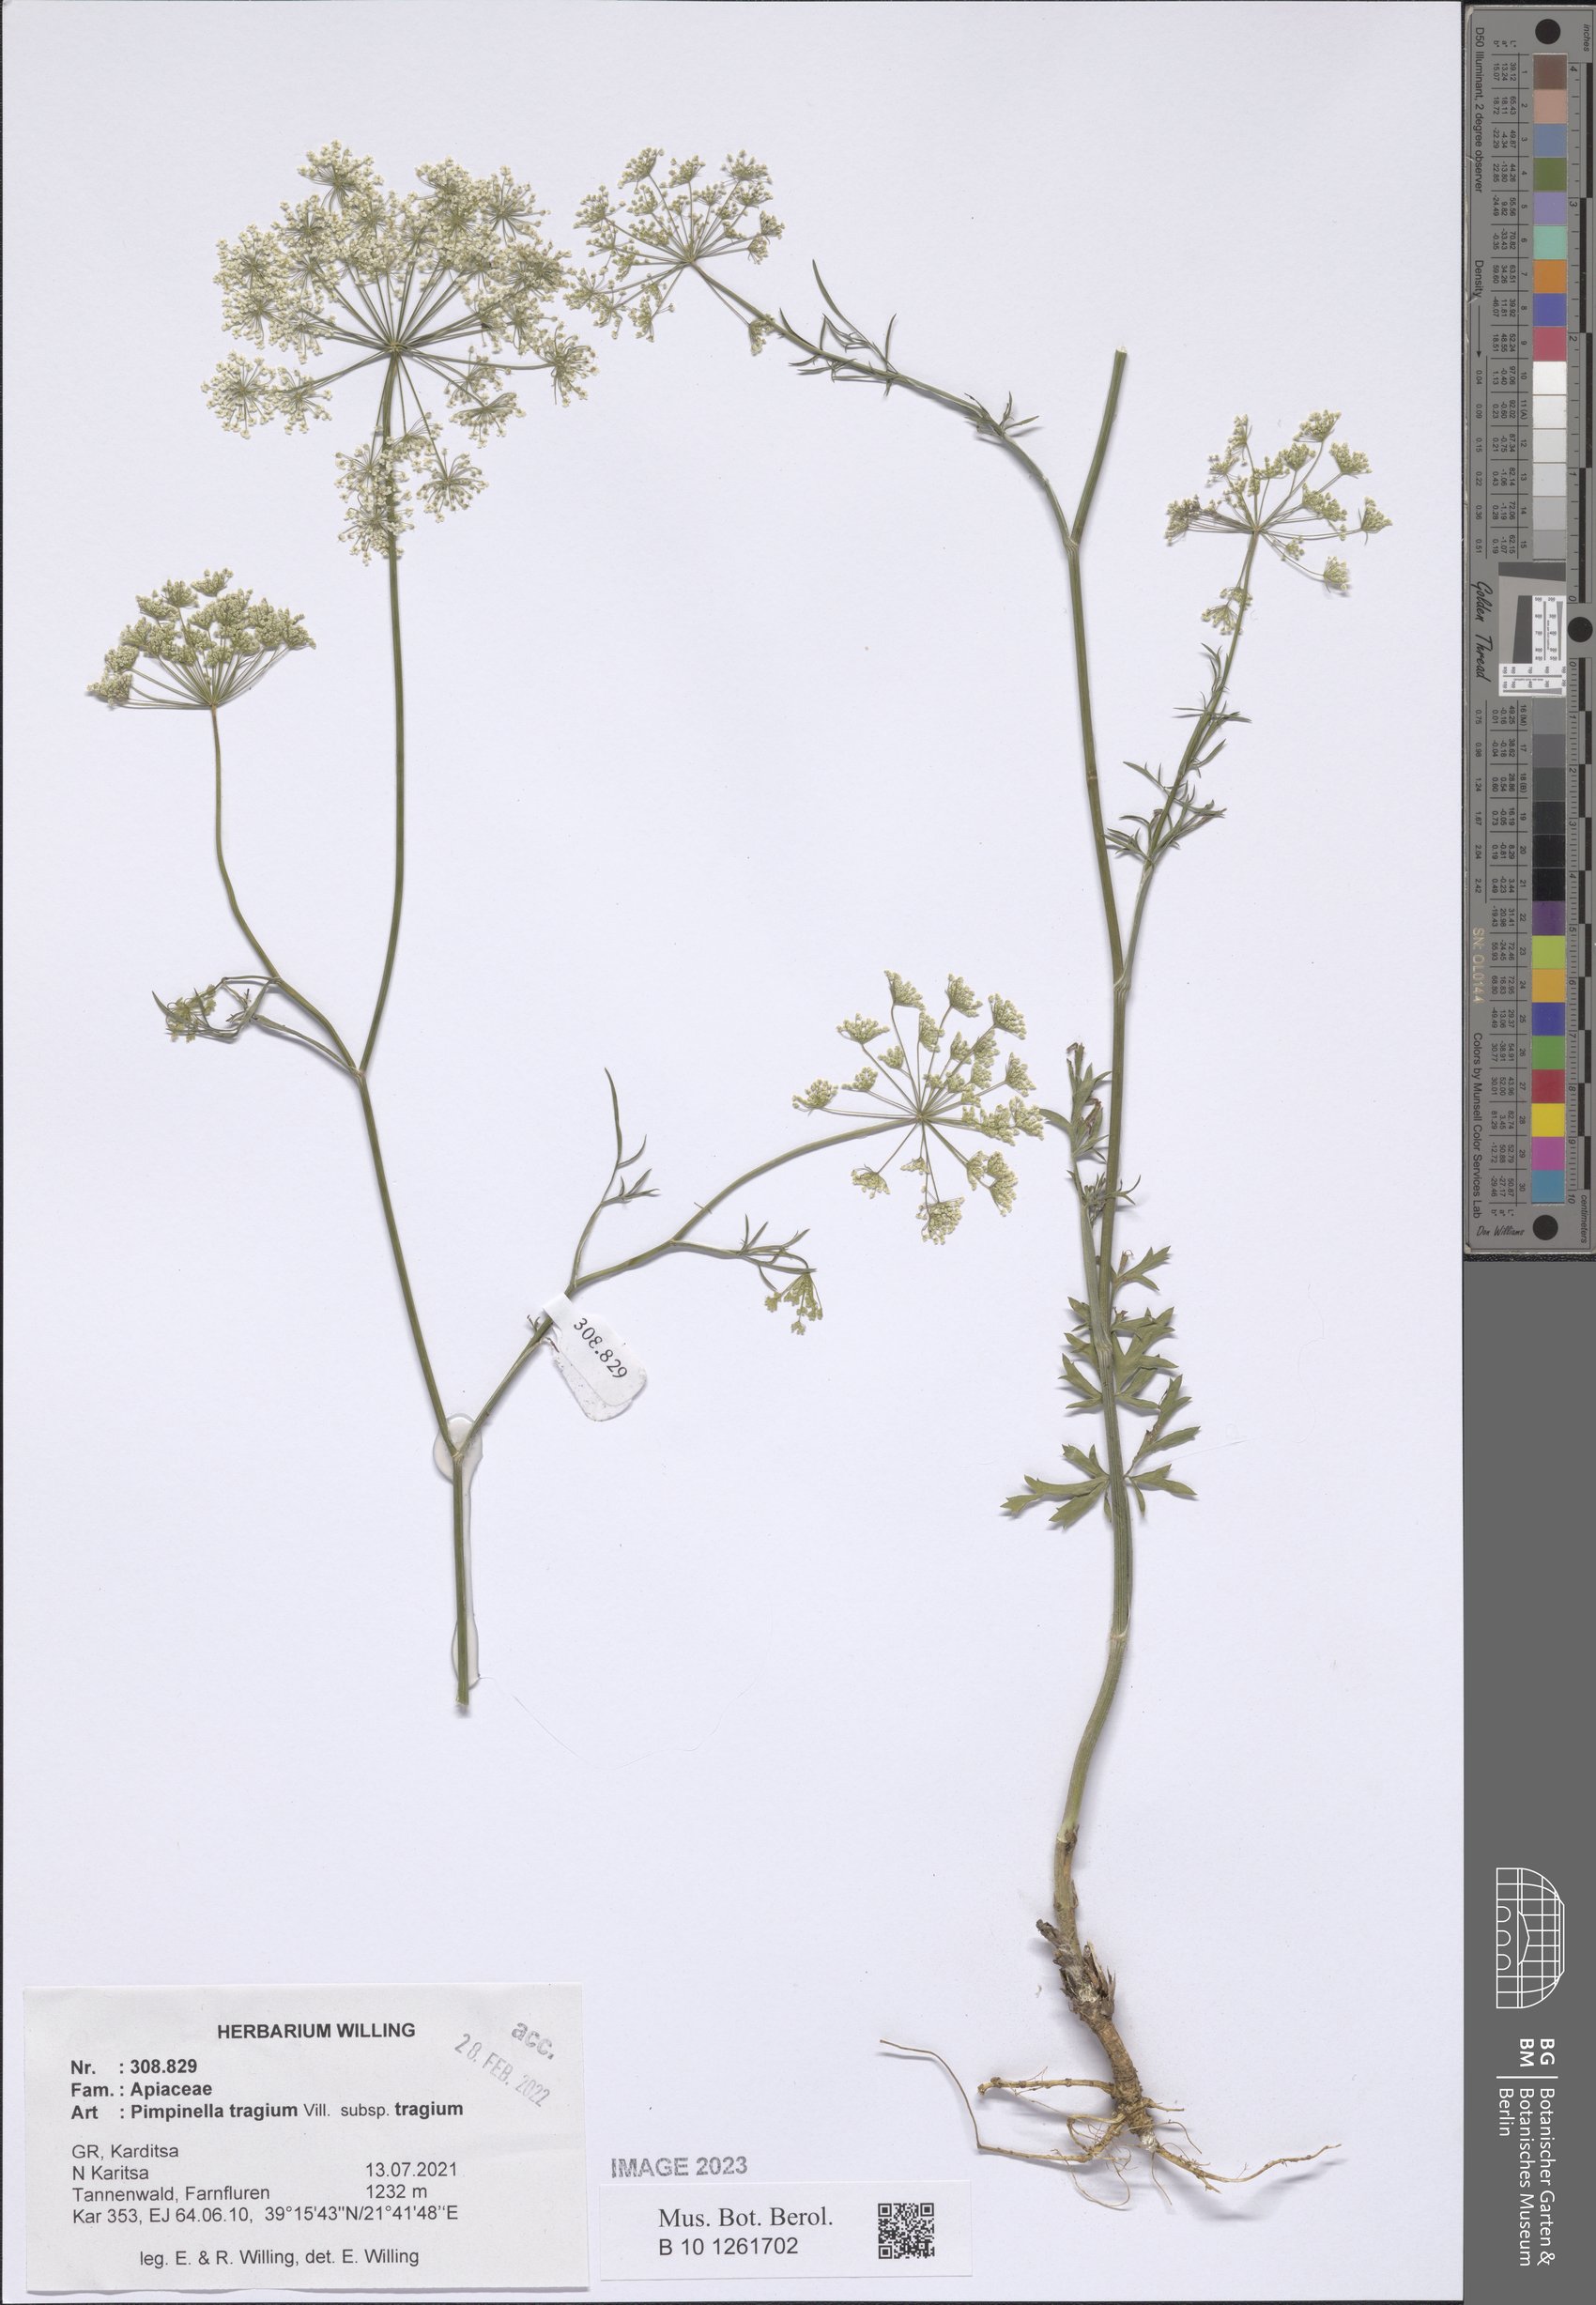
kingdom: Plantae
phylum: Tracheophyta
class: Magnoliopsida
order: Apiales
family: Apiaceae
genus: Pimpinella
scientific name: Pimpinella tragium
